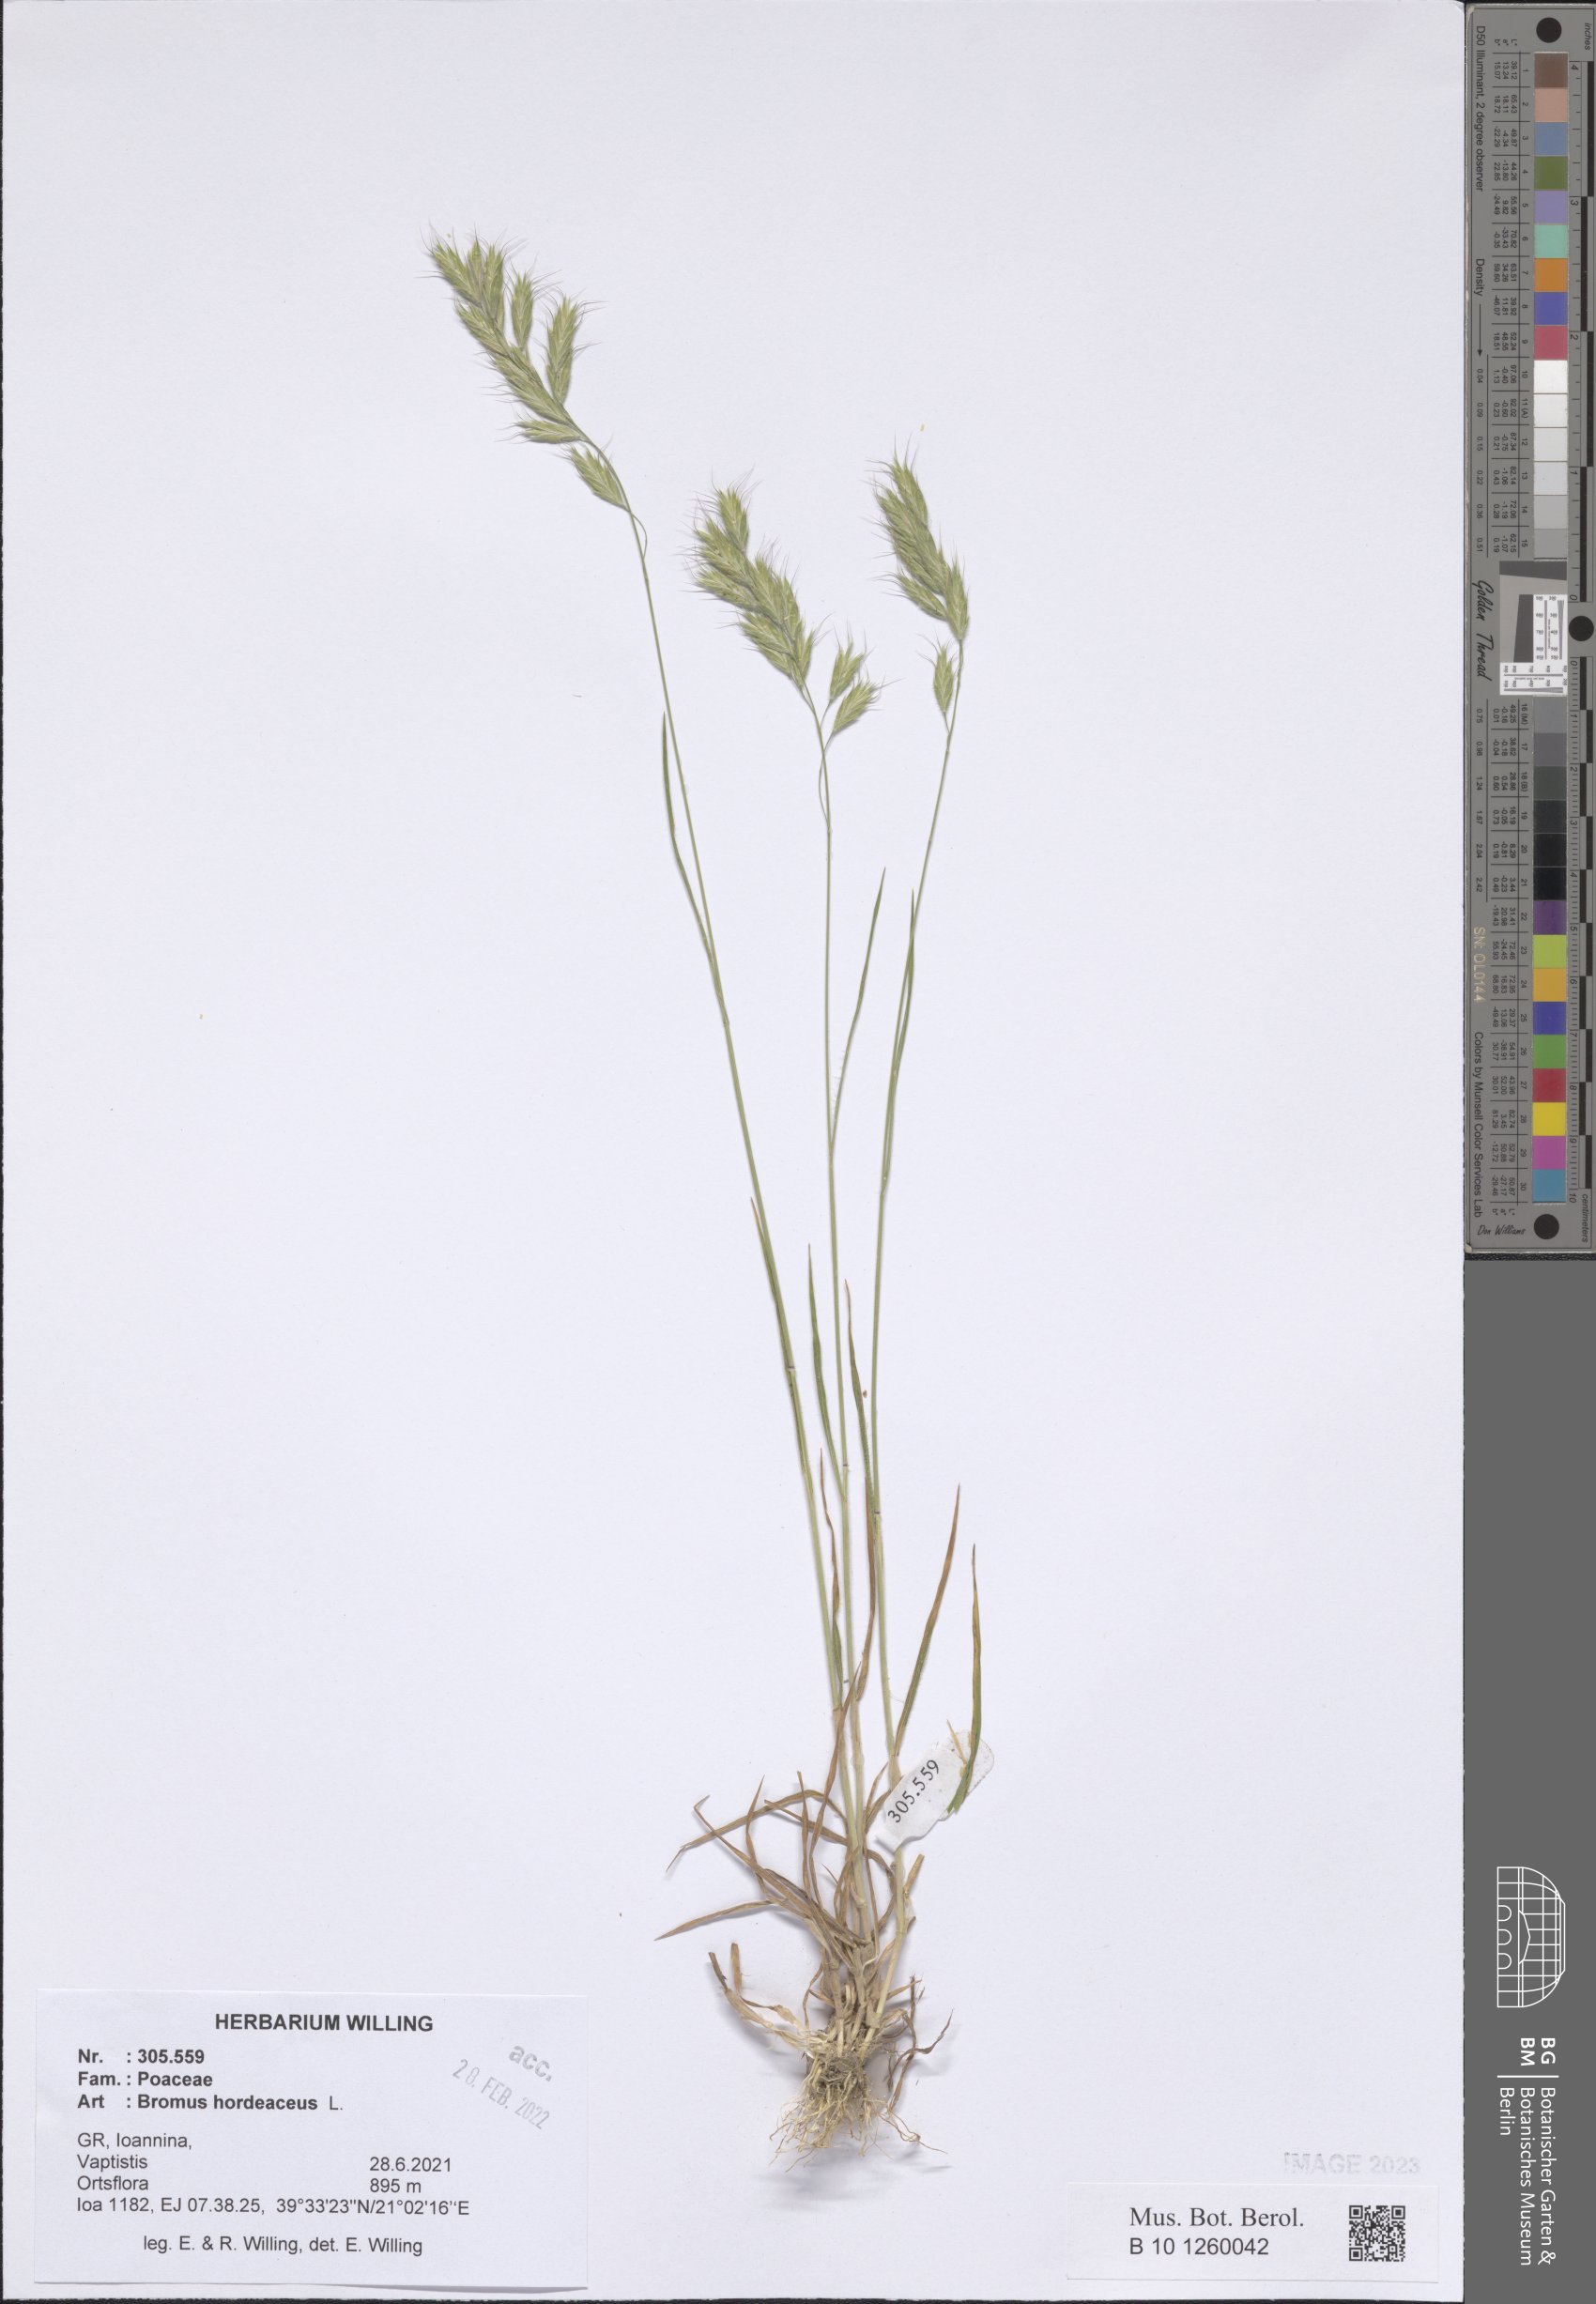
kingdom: Plantae
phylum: Tracheophyta
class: Liliopsida
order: Poales
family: Poaceae
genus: Bromus
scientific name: Bromus hordeaceus
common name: Soft brome
